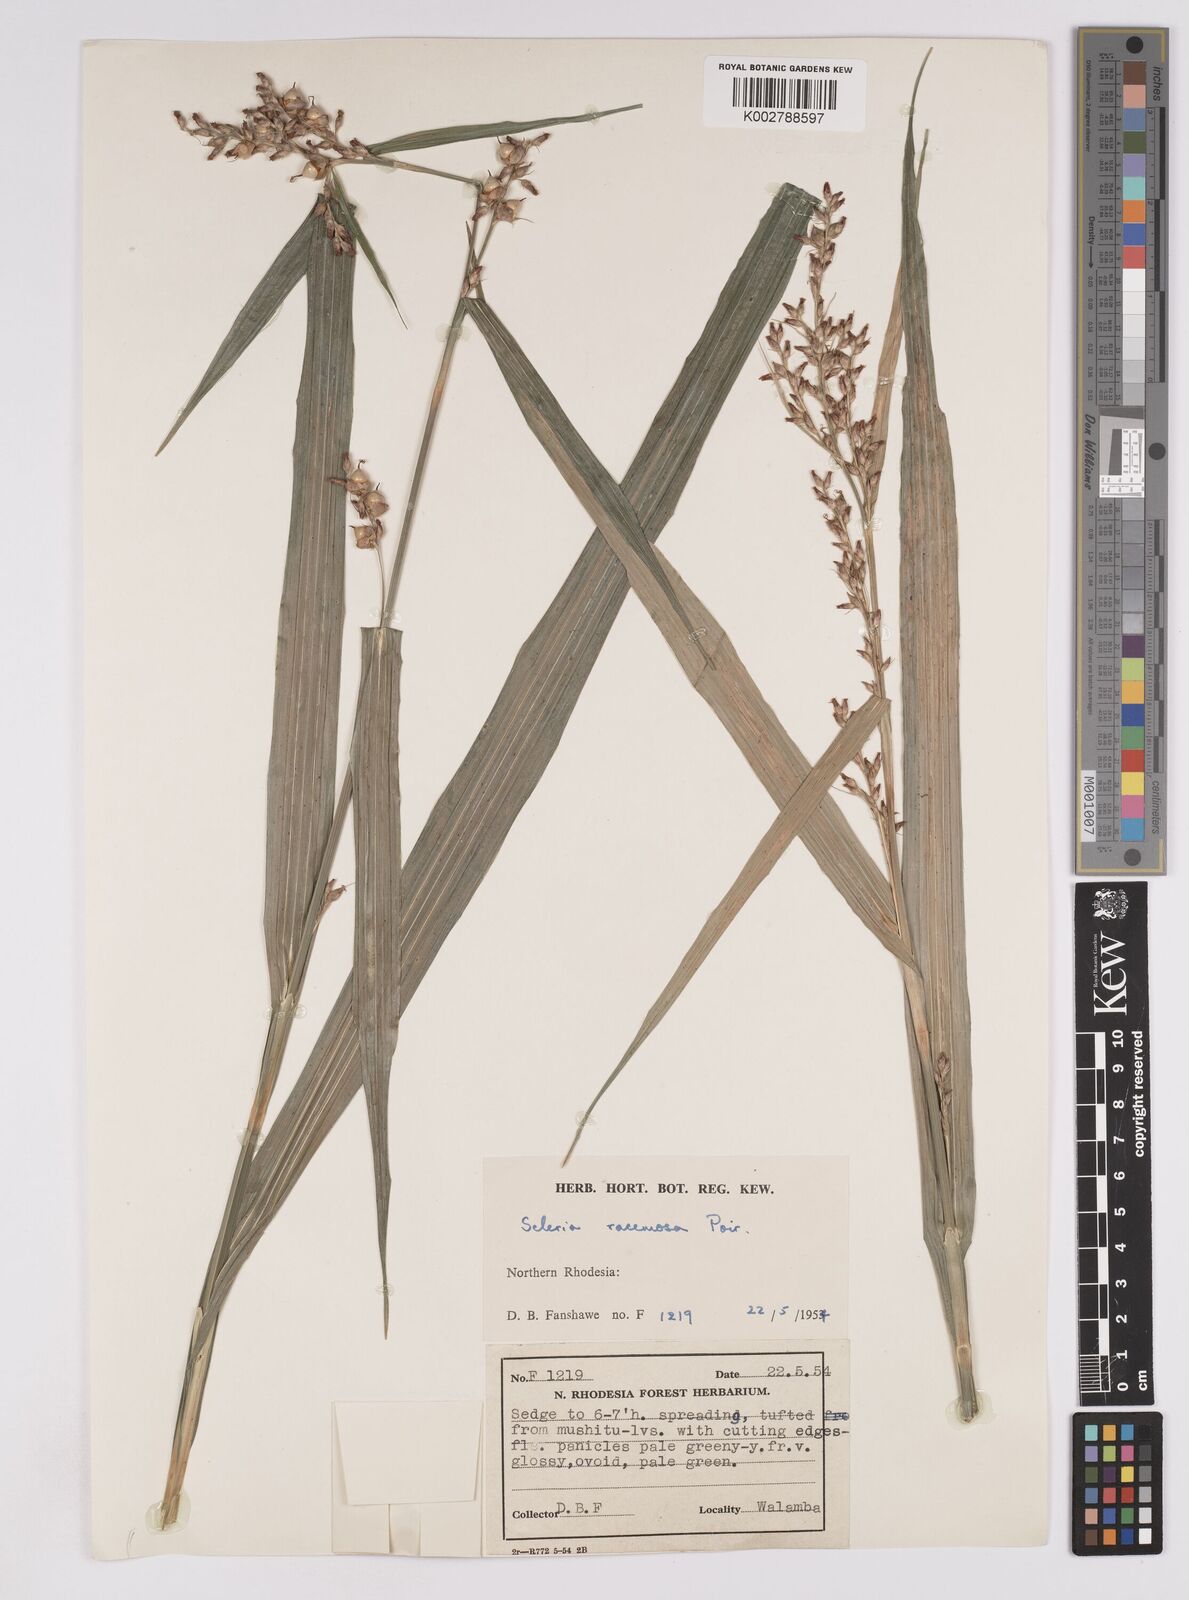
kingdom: Plantae
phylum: Tracheophyta
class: Liliopsida
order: Poales
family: Cyperaceae
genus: Scleria
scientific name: Scleria racemosa
